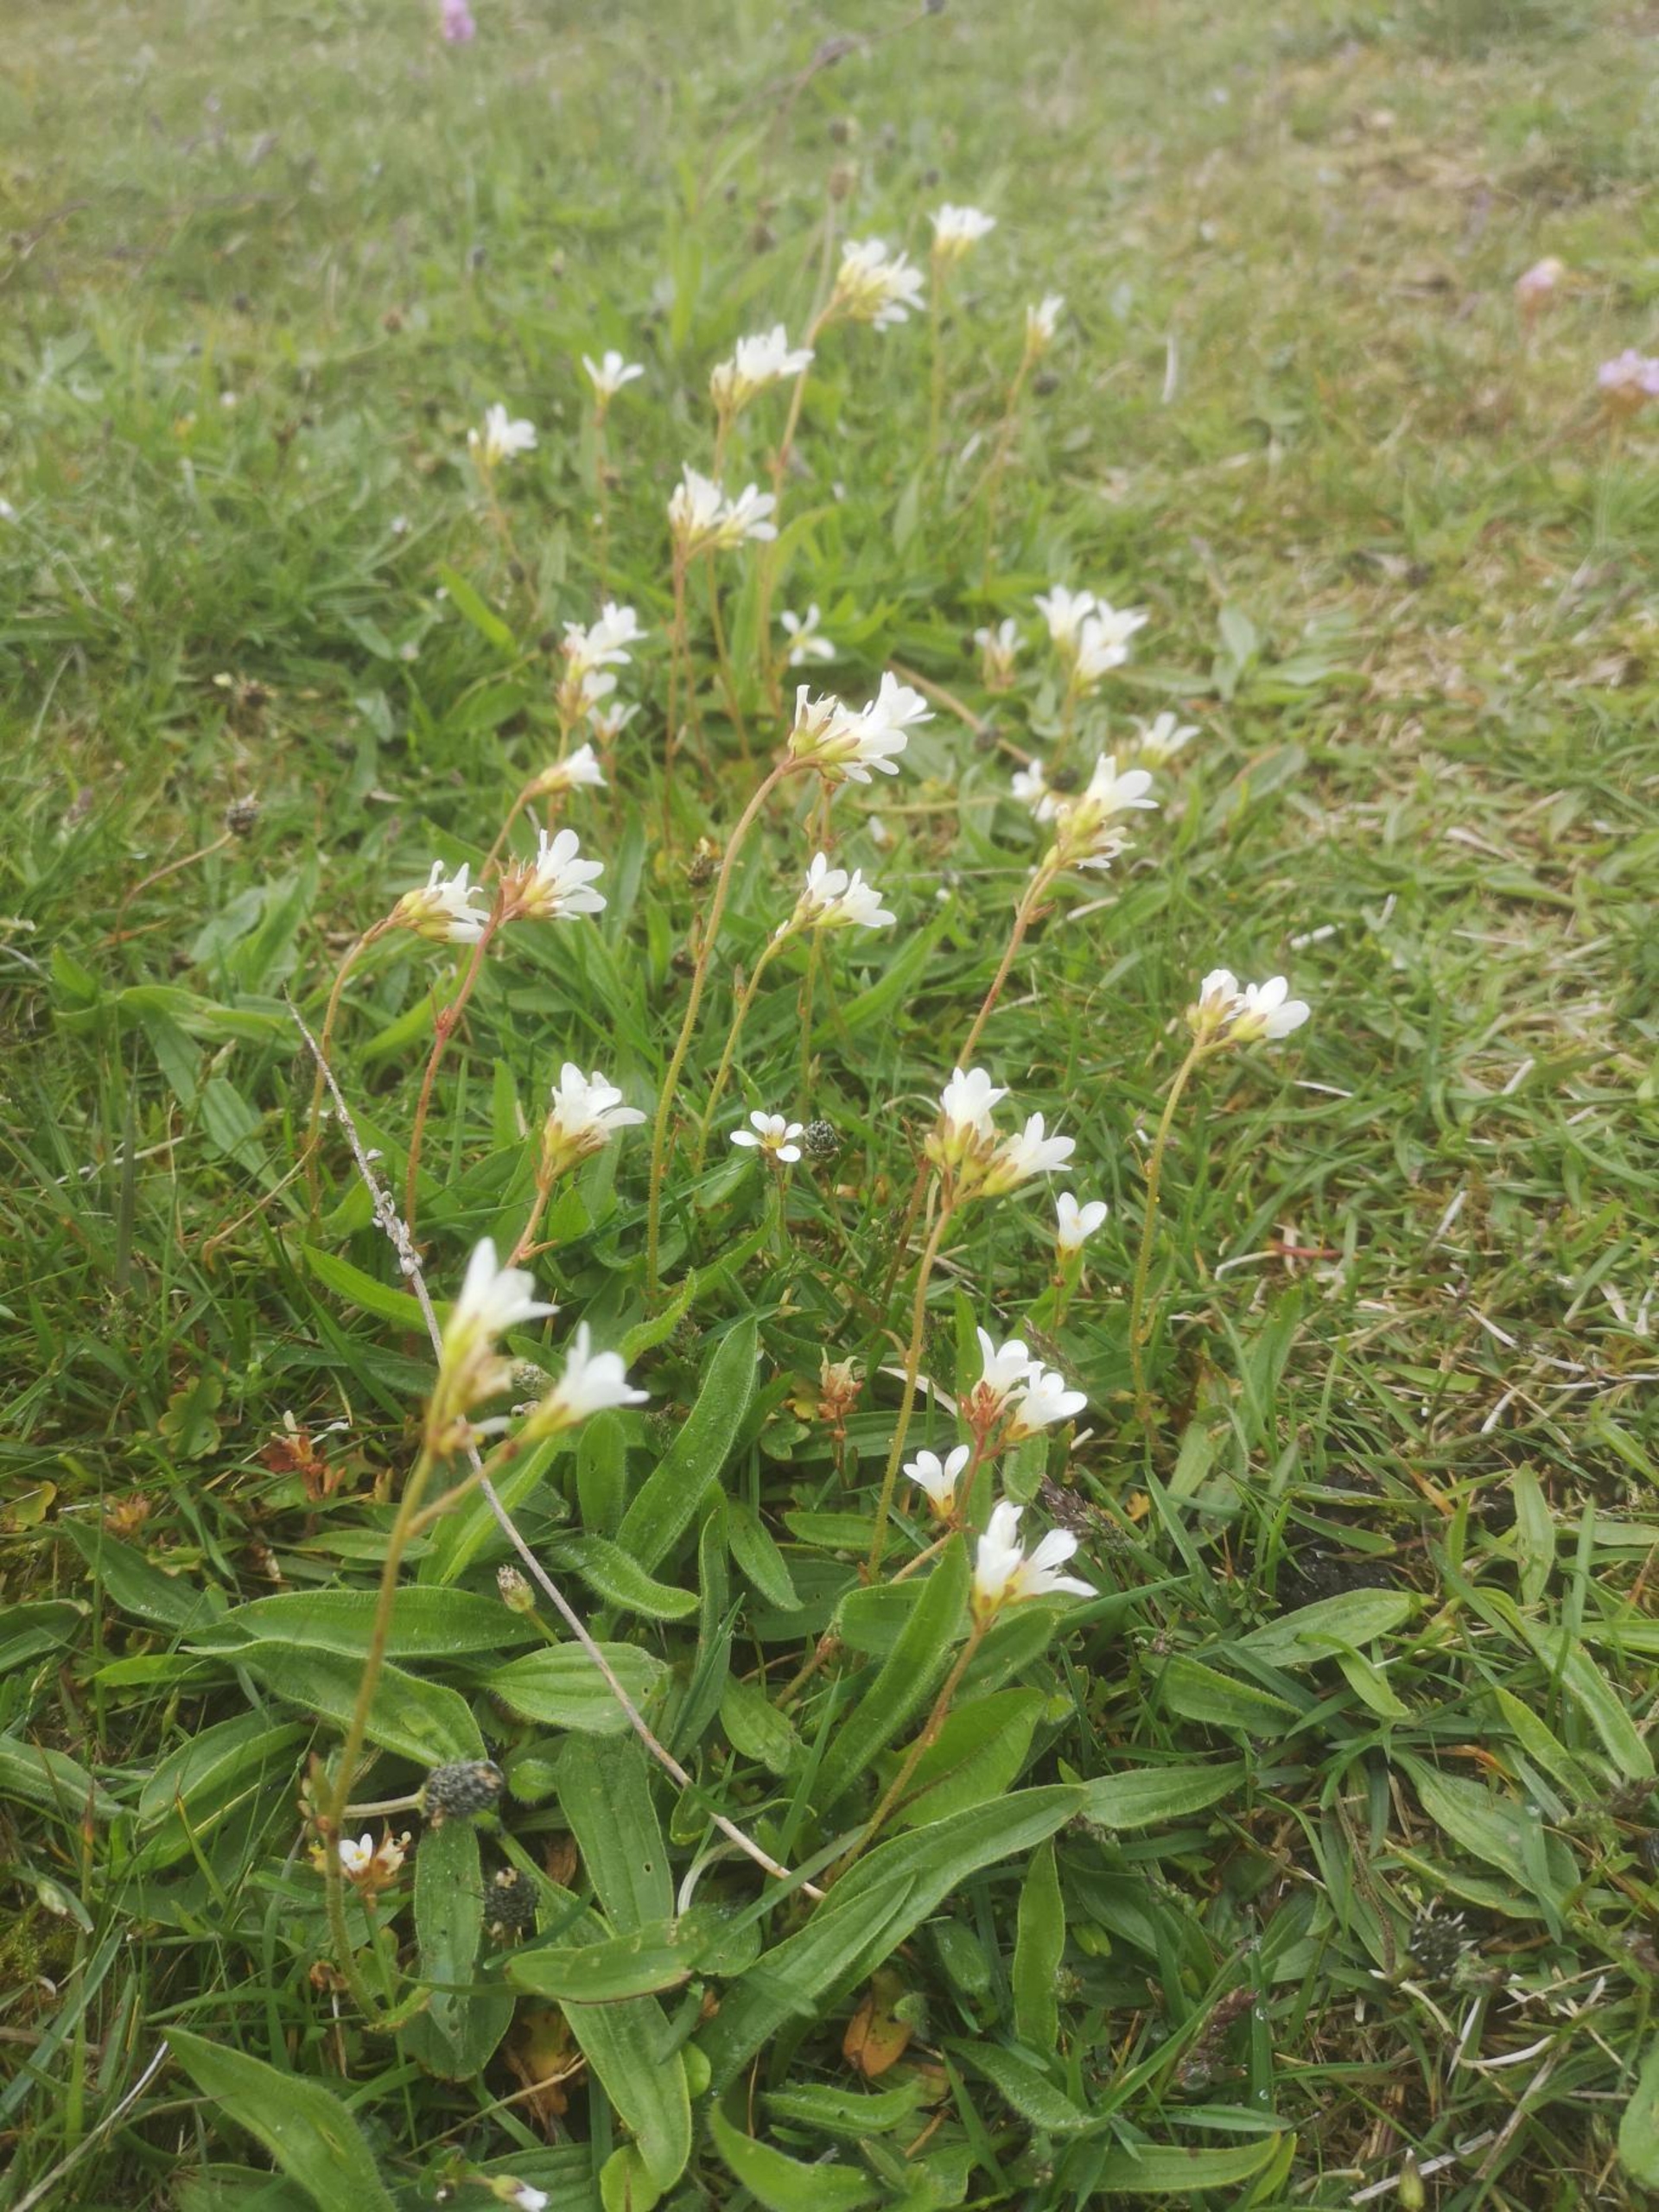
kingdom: Plantae
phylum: Tracheophyta
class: Magnoliopsida
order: Saxifragales
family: Saxifragaceae
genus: Saxifraga
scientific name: Saxifraga granulata
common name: Kornet stenbræk
